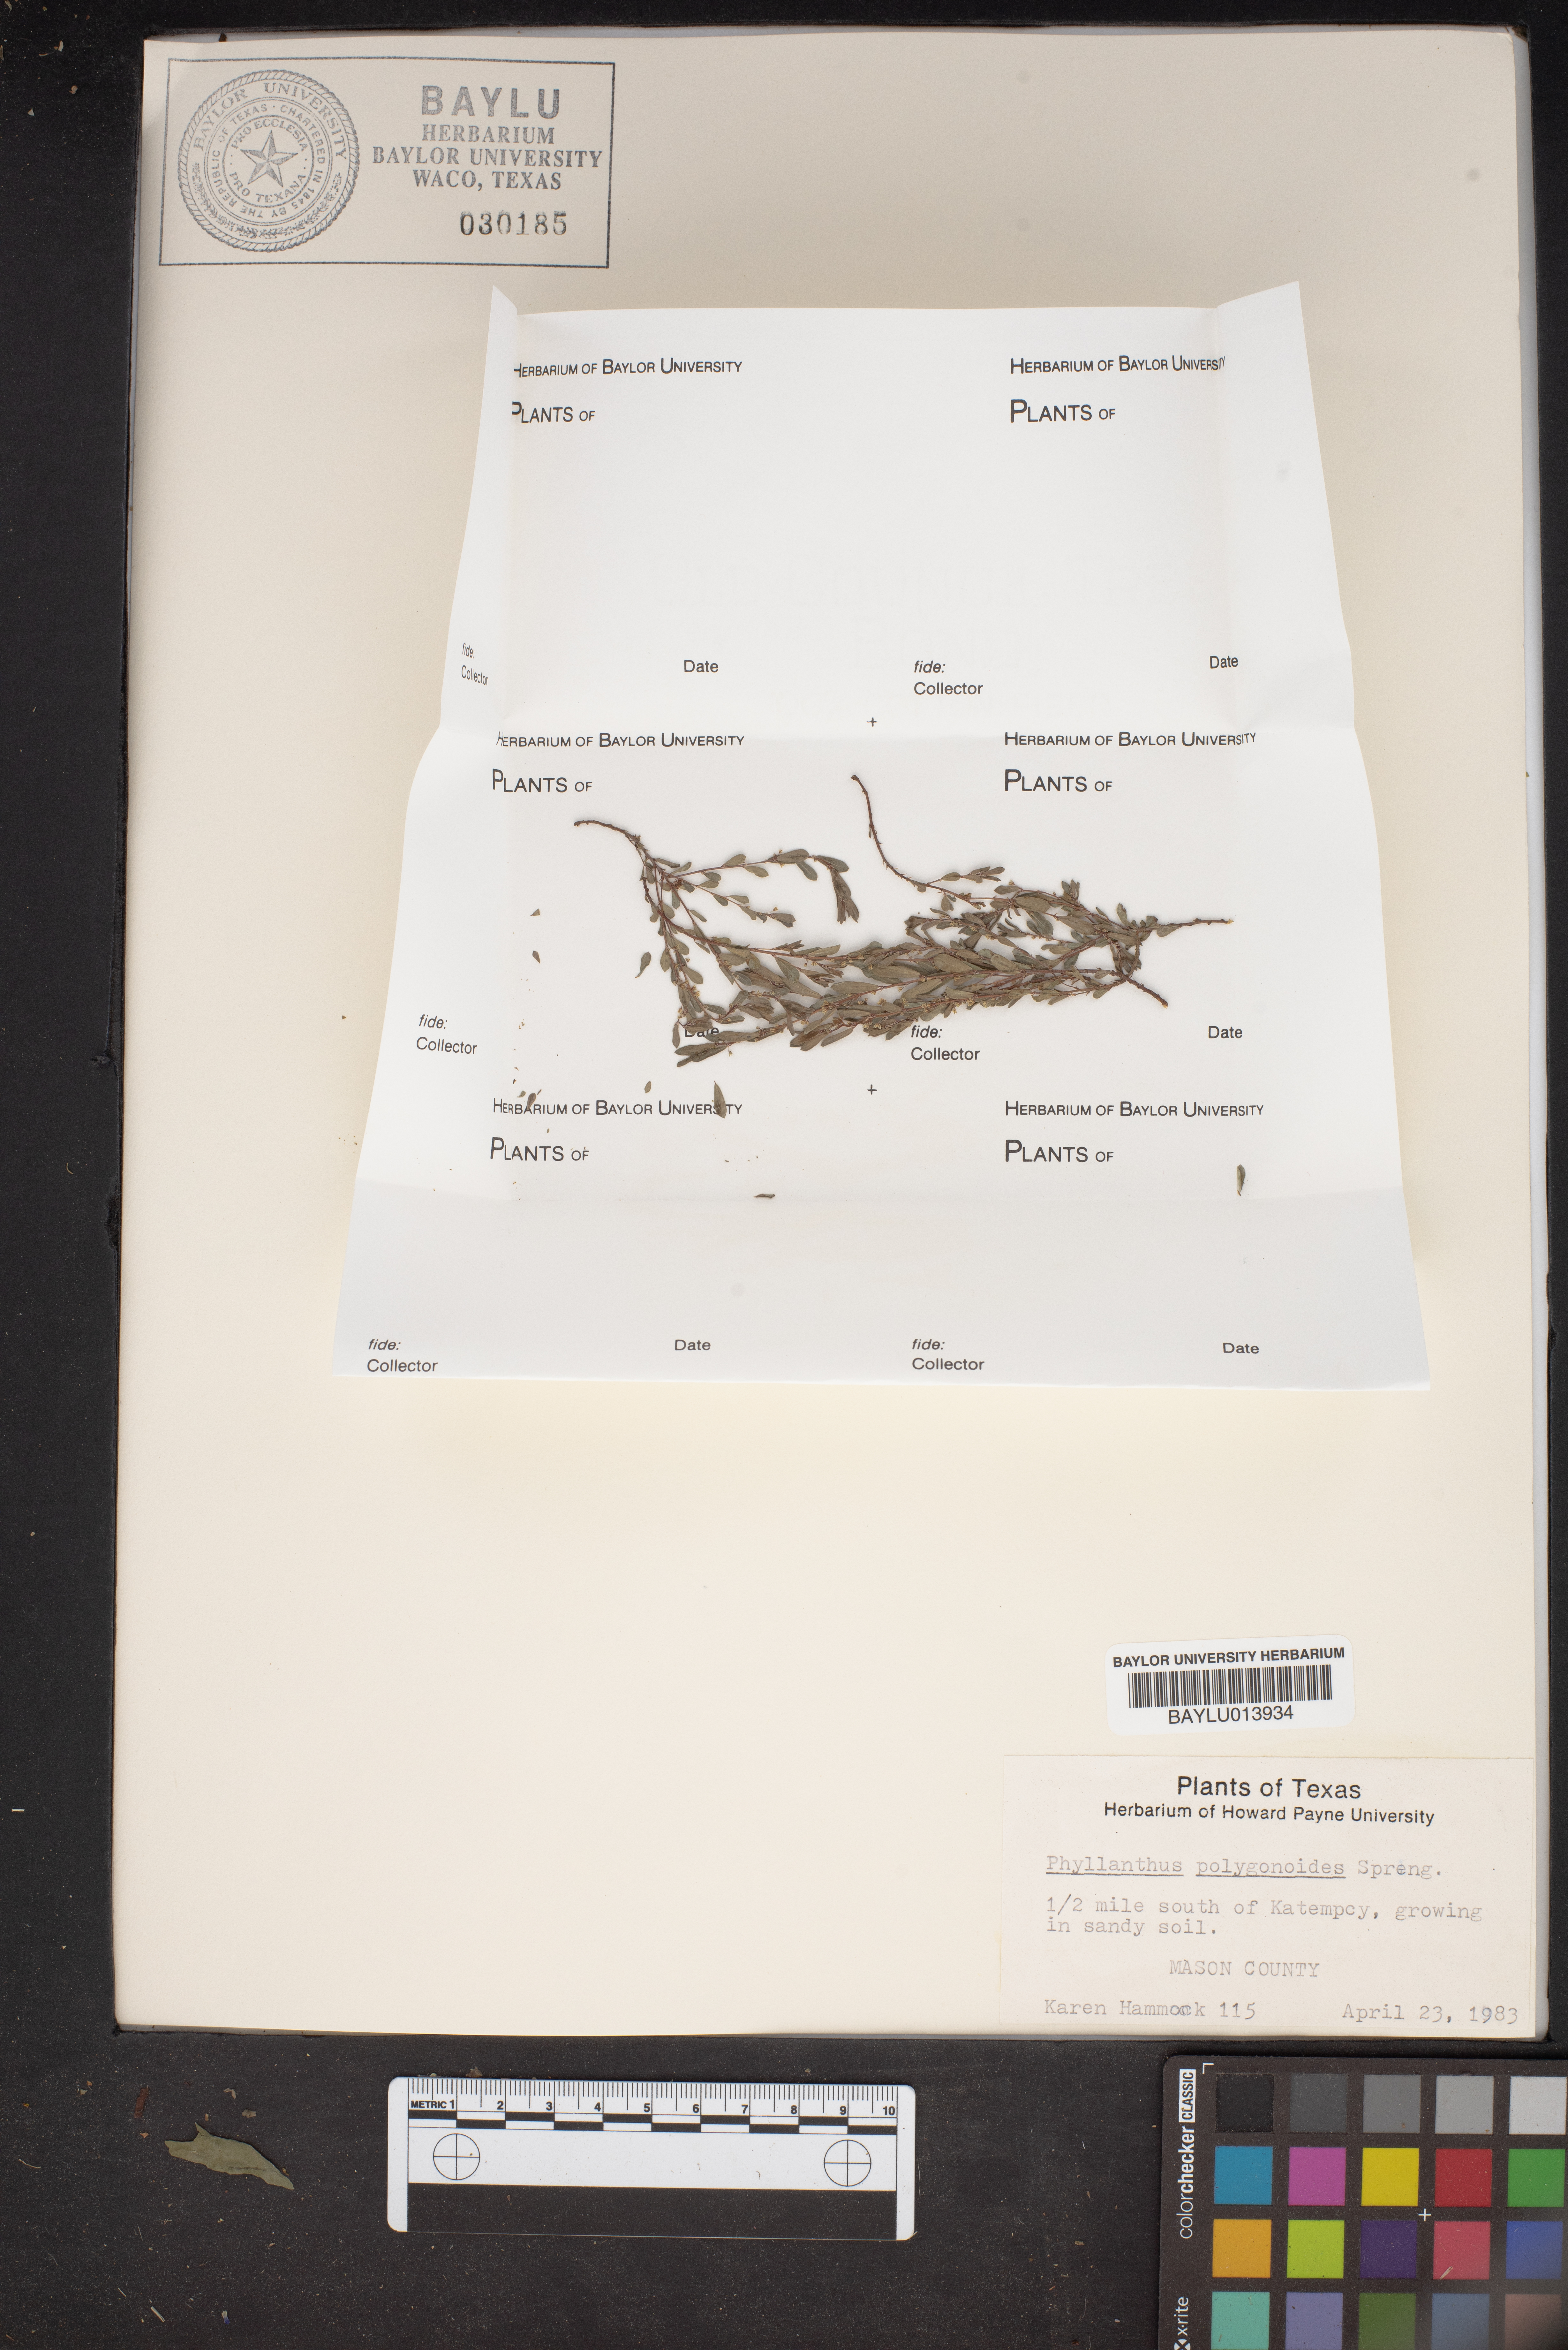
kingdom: Plantae
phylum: Tracheophyta
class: Magnoliopsida
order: Malpighiales
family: Phyllanthaceae
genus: Phyllanthus
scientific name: Phyllanthus polygonoides
